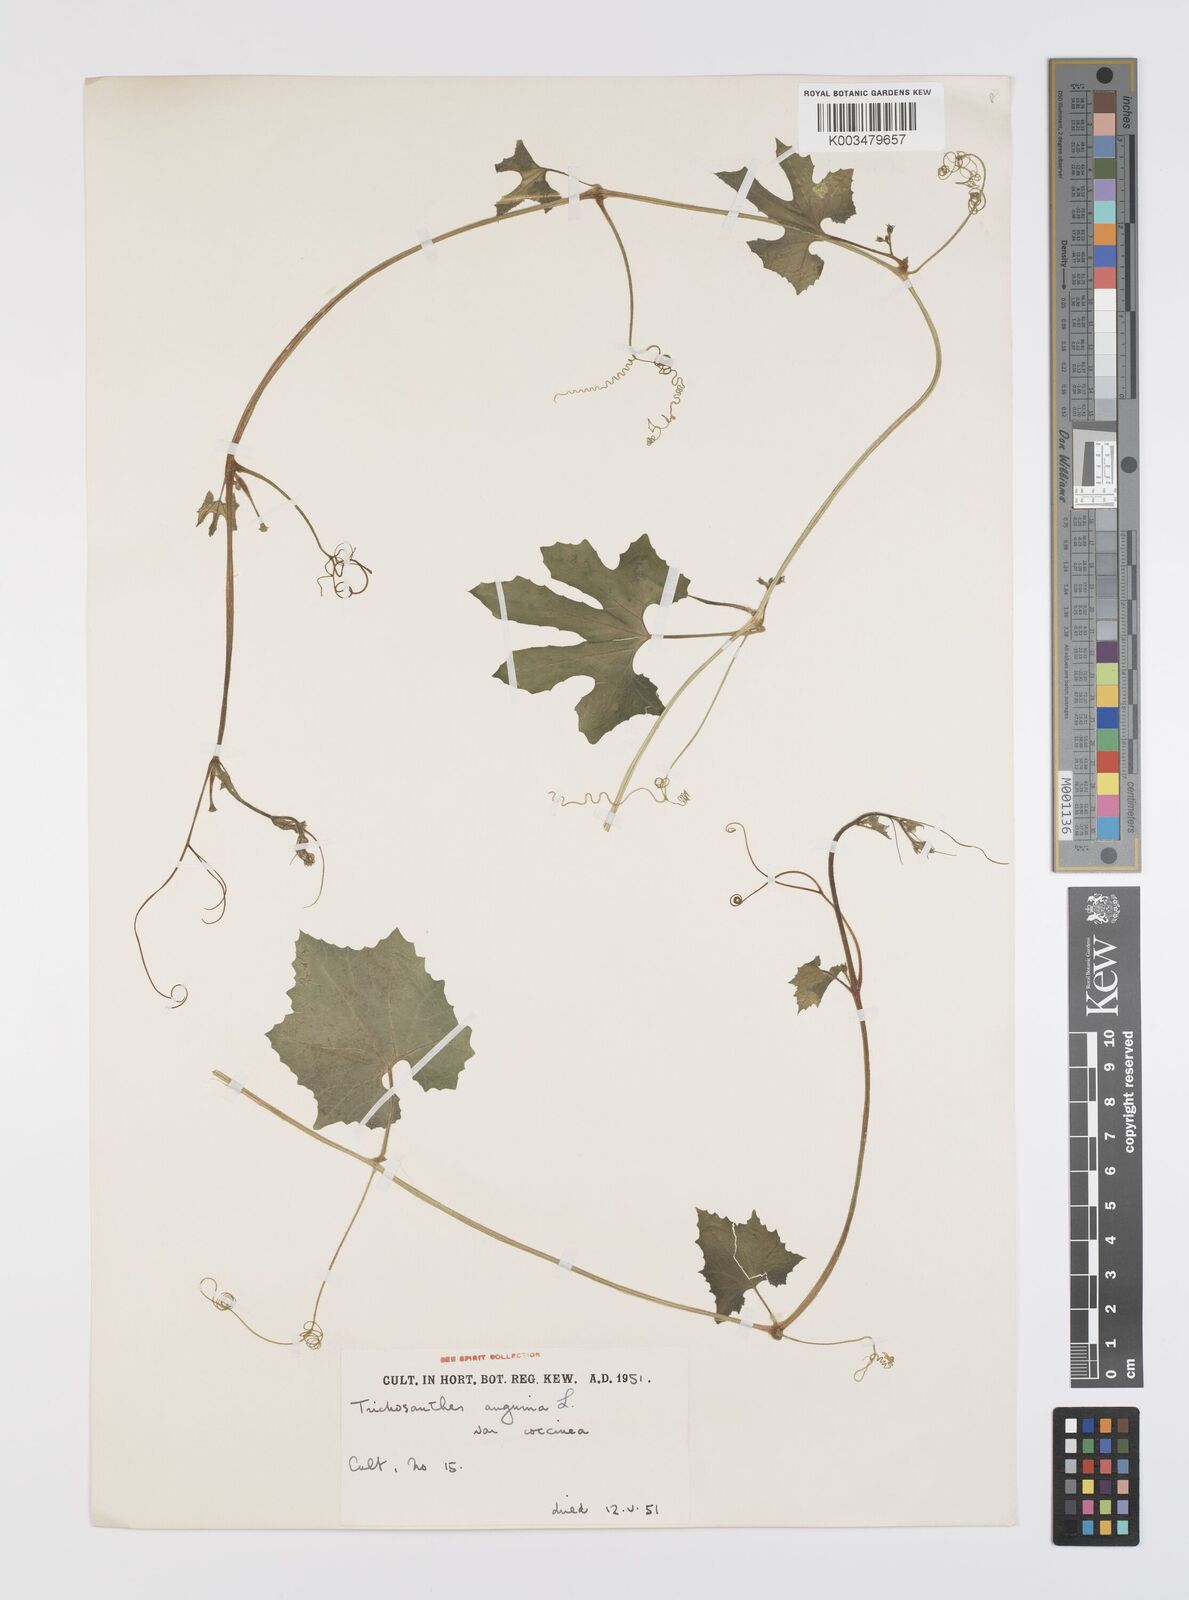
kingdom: Plantae
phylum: Tracheophyta
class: Magnoliopsida
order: Cucurbitales
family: Cucurbitaceae
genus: Trichosanthes
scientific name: Trichosanthes cucumerina
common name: Snakegourd
